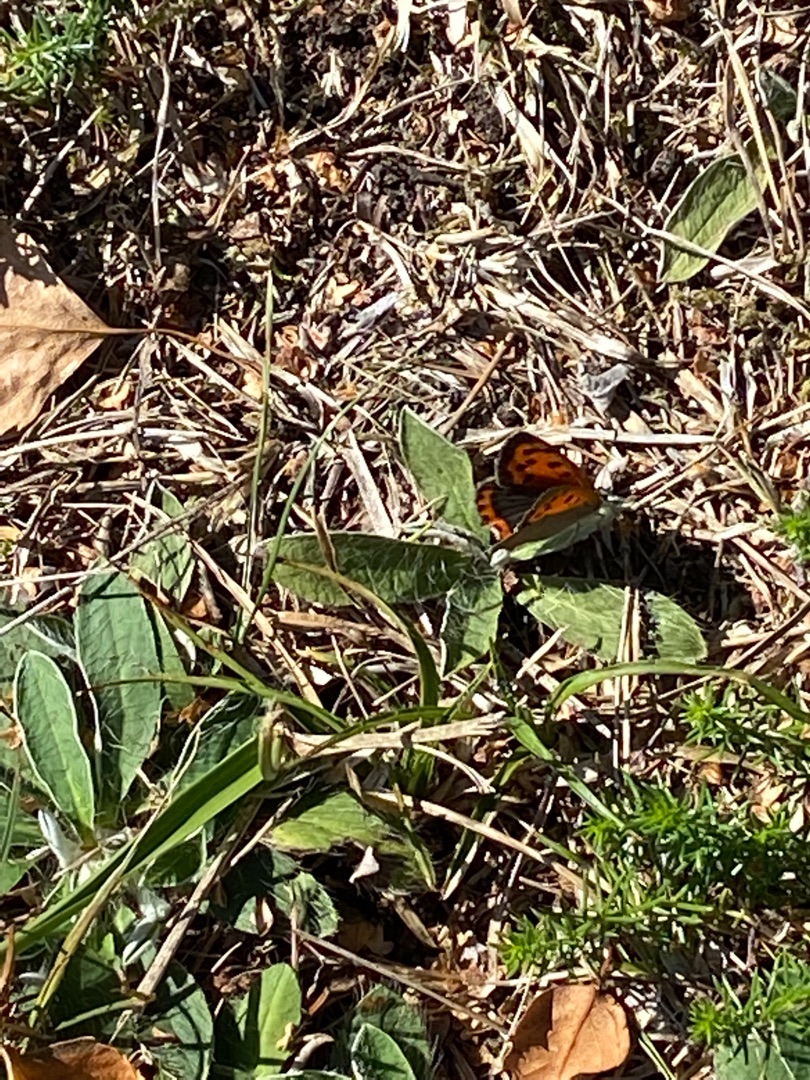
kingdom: Animalia
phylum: Arthropoda
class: Insecta
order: Lepidoptera
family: Lycaenidae
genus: Lycaena
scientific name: Lycaena phlaeas
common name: Lille ildfugl
